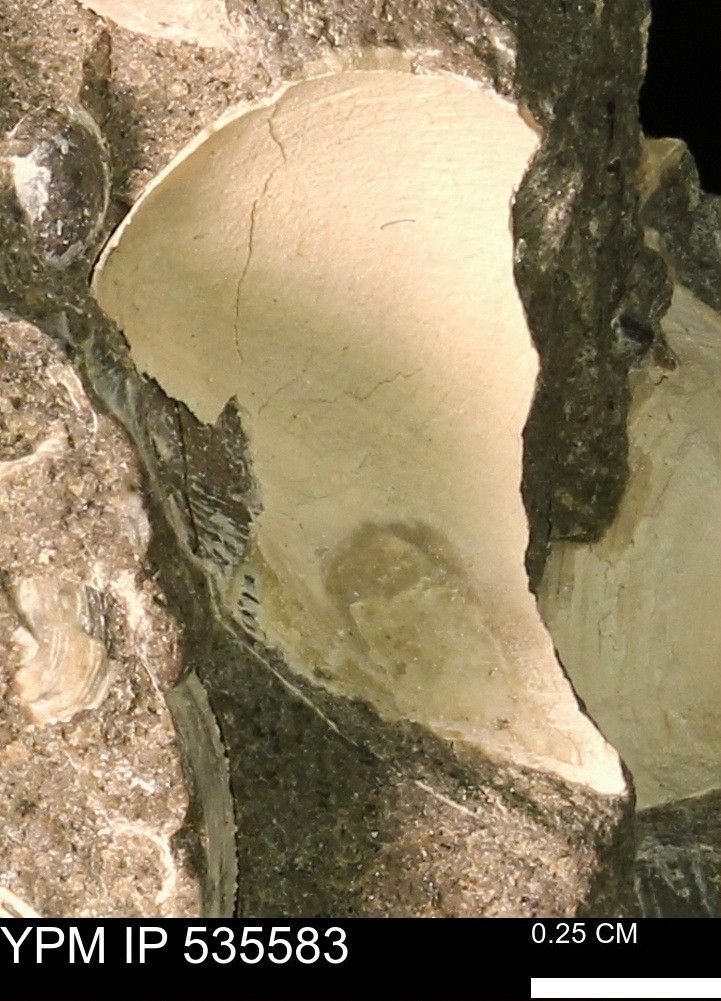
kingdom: Animalia
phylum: Mollusca
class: Bivalvia
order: Cardiida
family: Cardiidae
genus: Protocardia
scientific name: Protocardia Cardium subquadratum
